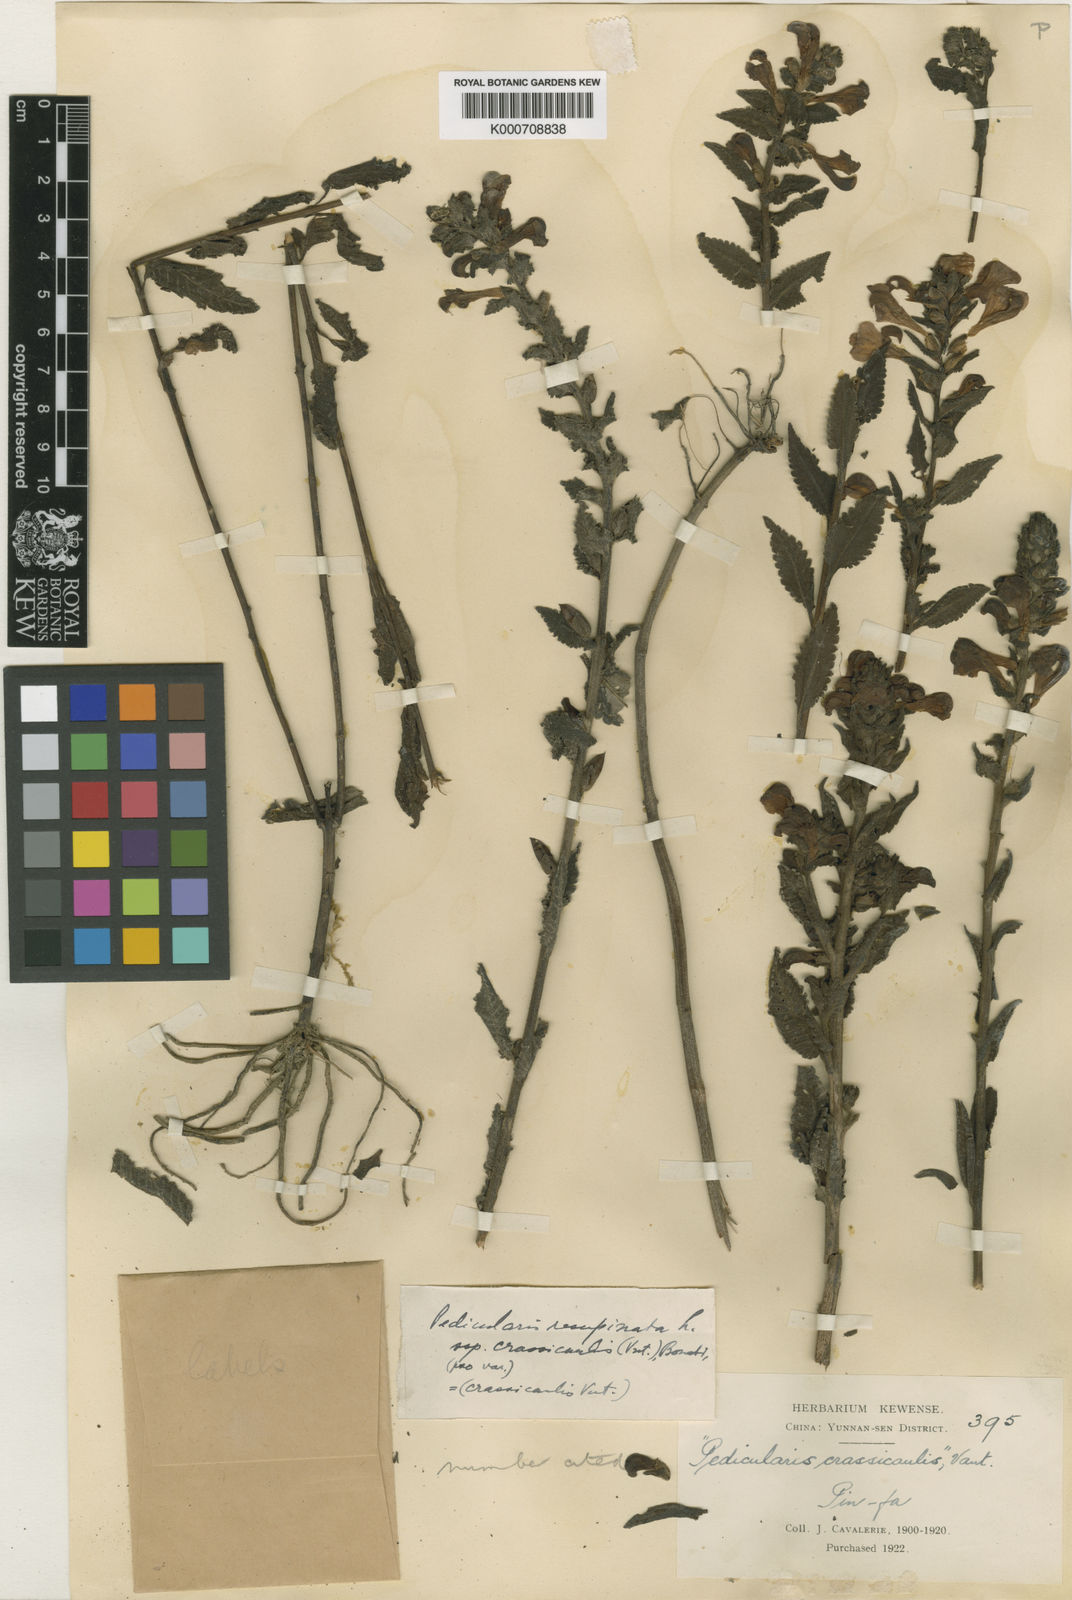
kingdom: Plantae
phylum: Tracheophyta
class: Magnoliopsida
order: Lamiales
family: Orobanchaceae
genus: Pedicularis
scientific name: Pedicularis resupinata
